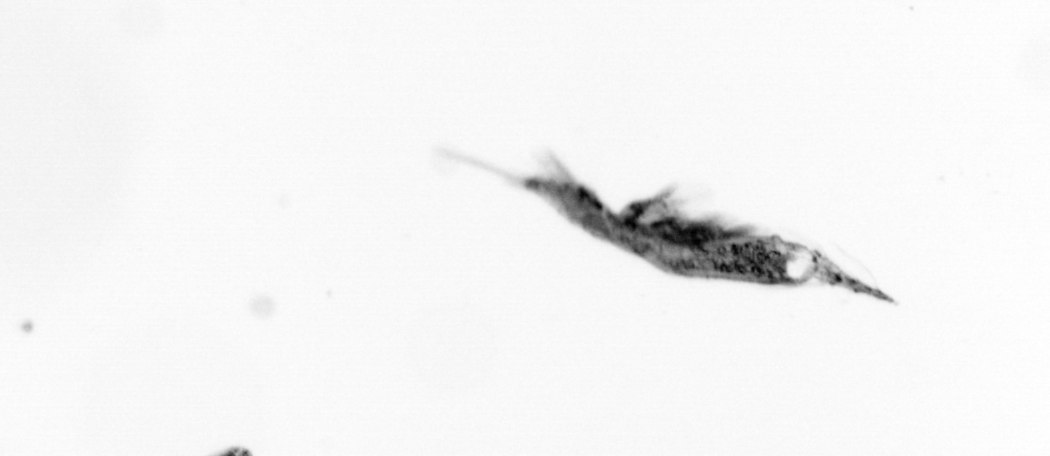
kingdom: Animalia
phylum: Arthropoda
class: Copepoda
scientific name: Copepoda
